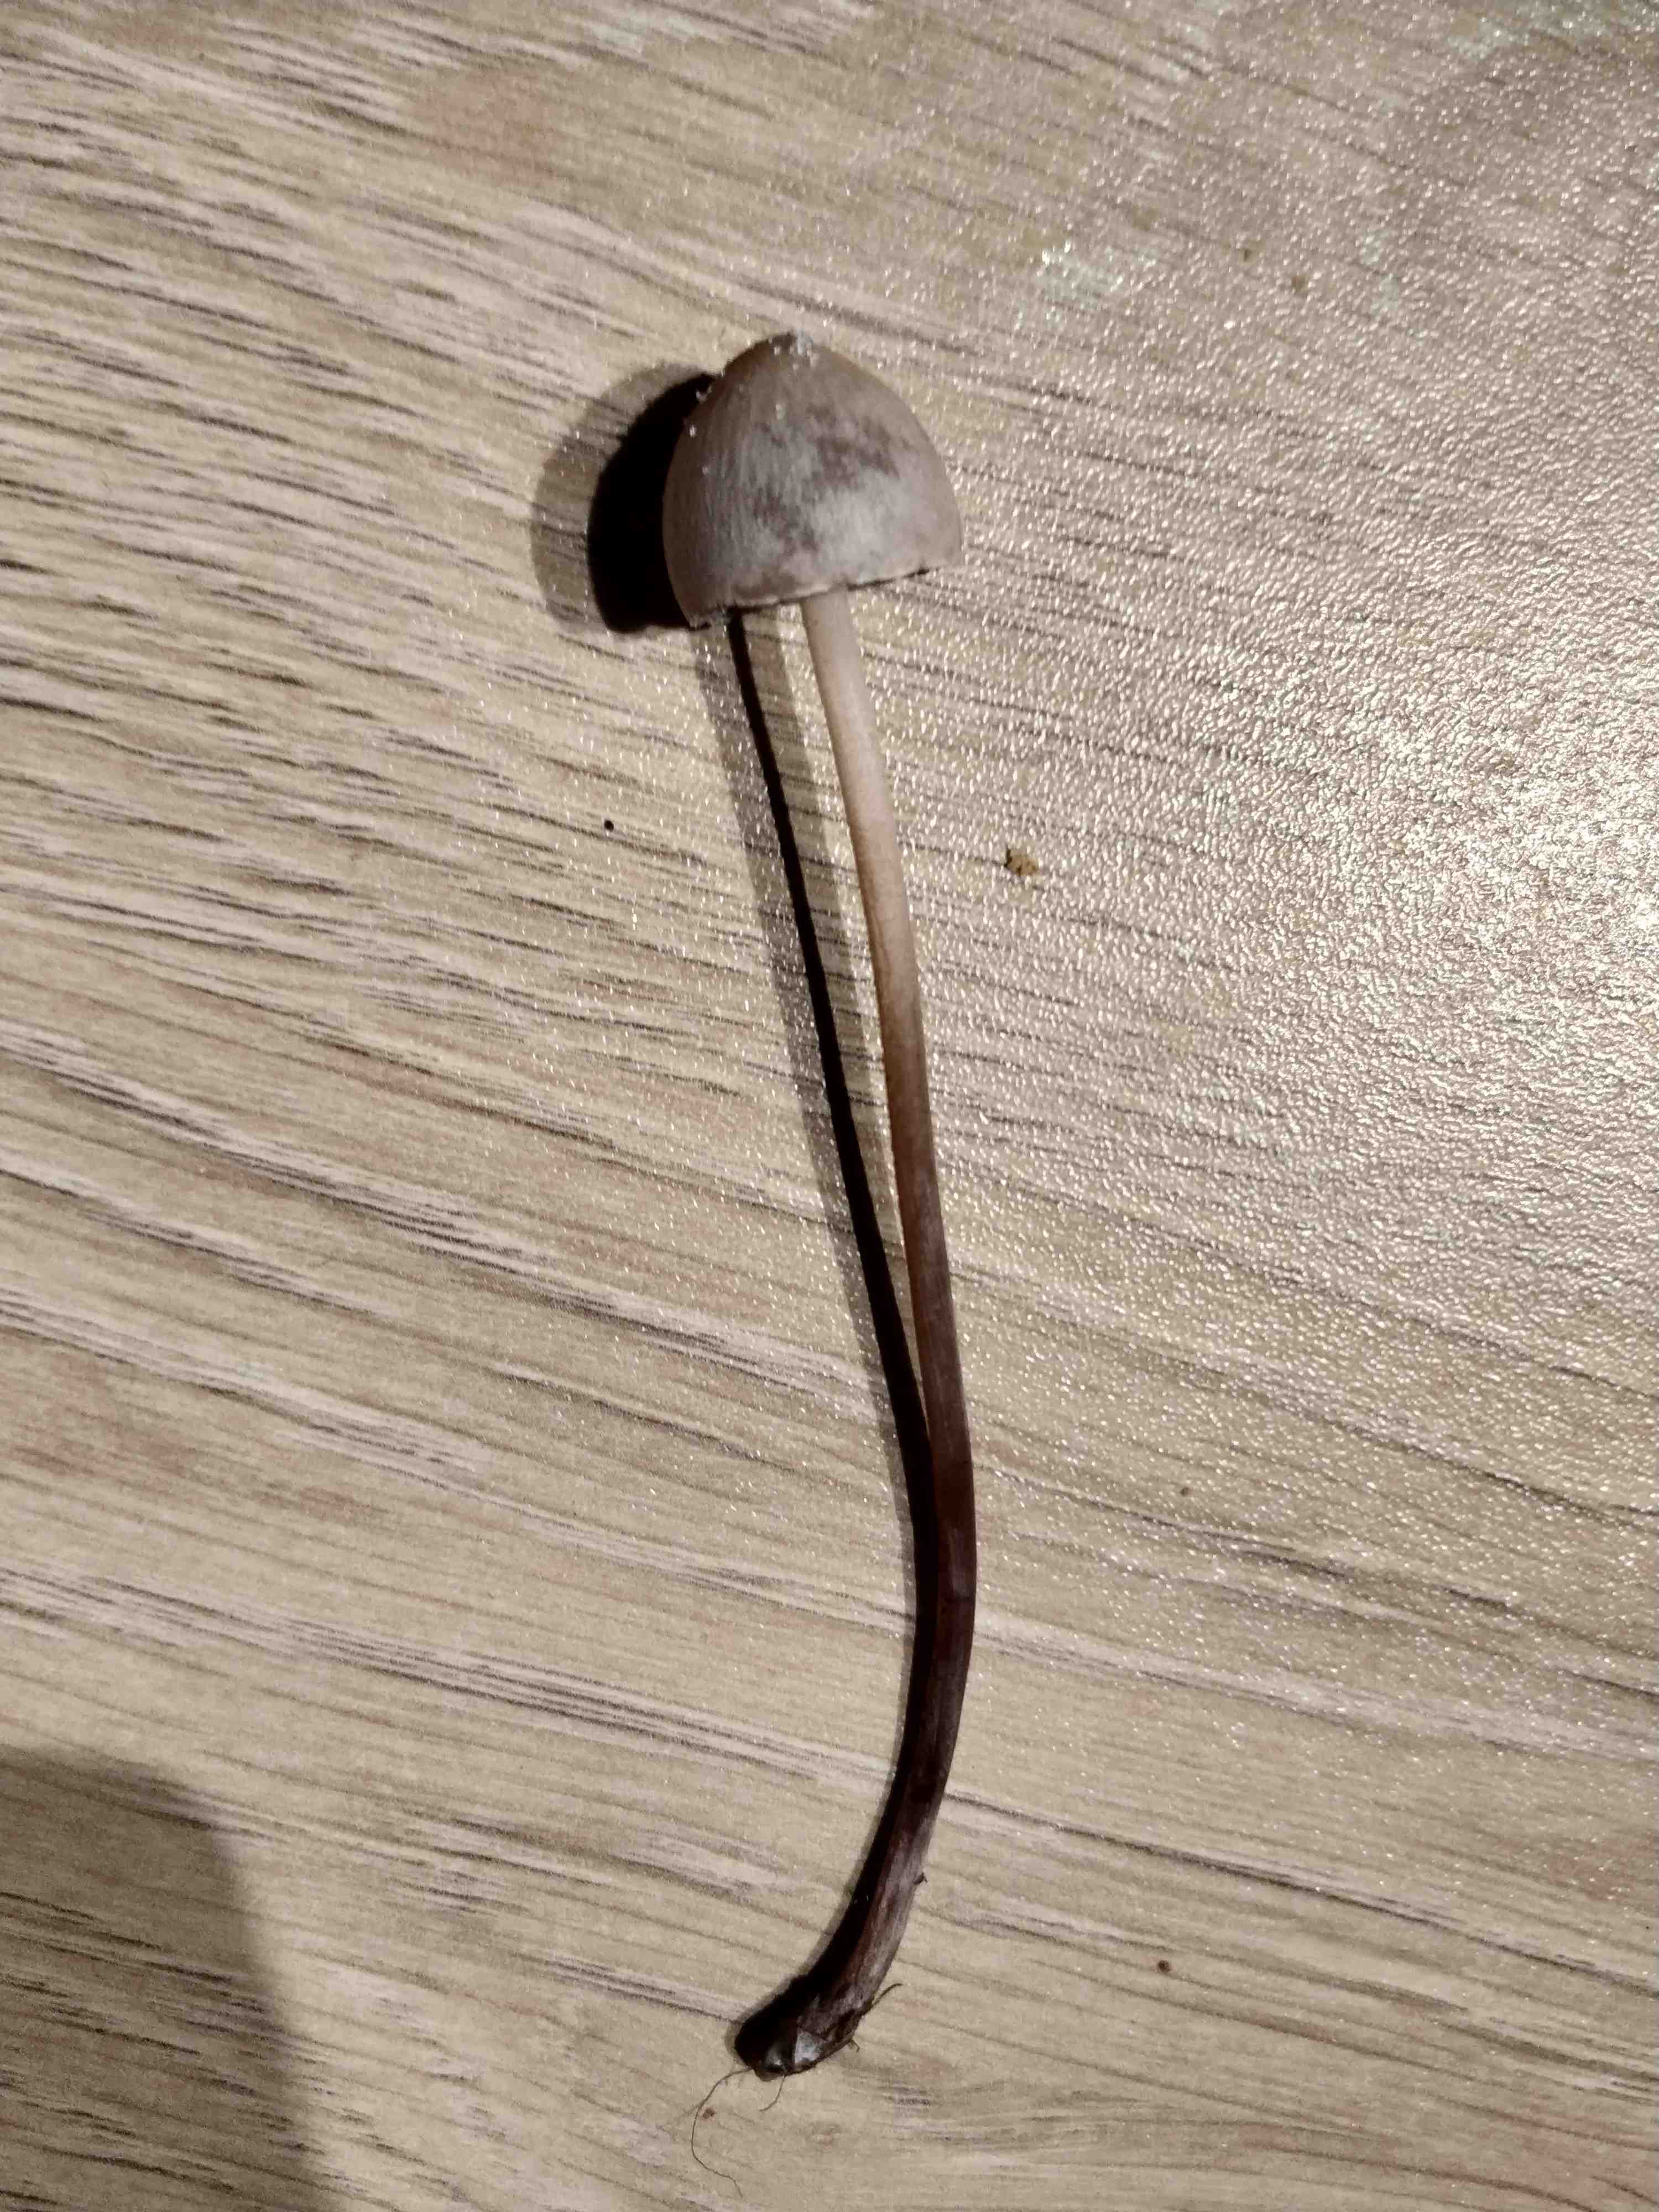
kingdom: Fungi
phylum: Basidiomycota
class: Agaricomycetes
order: Agaricales
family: Bolbitiaceae
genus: Panaeolus
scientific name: Panaeolus papilionaceus
